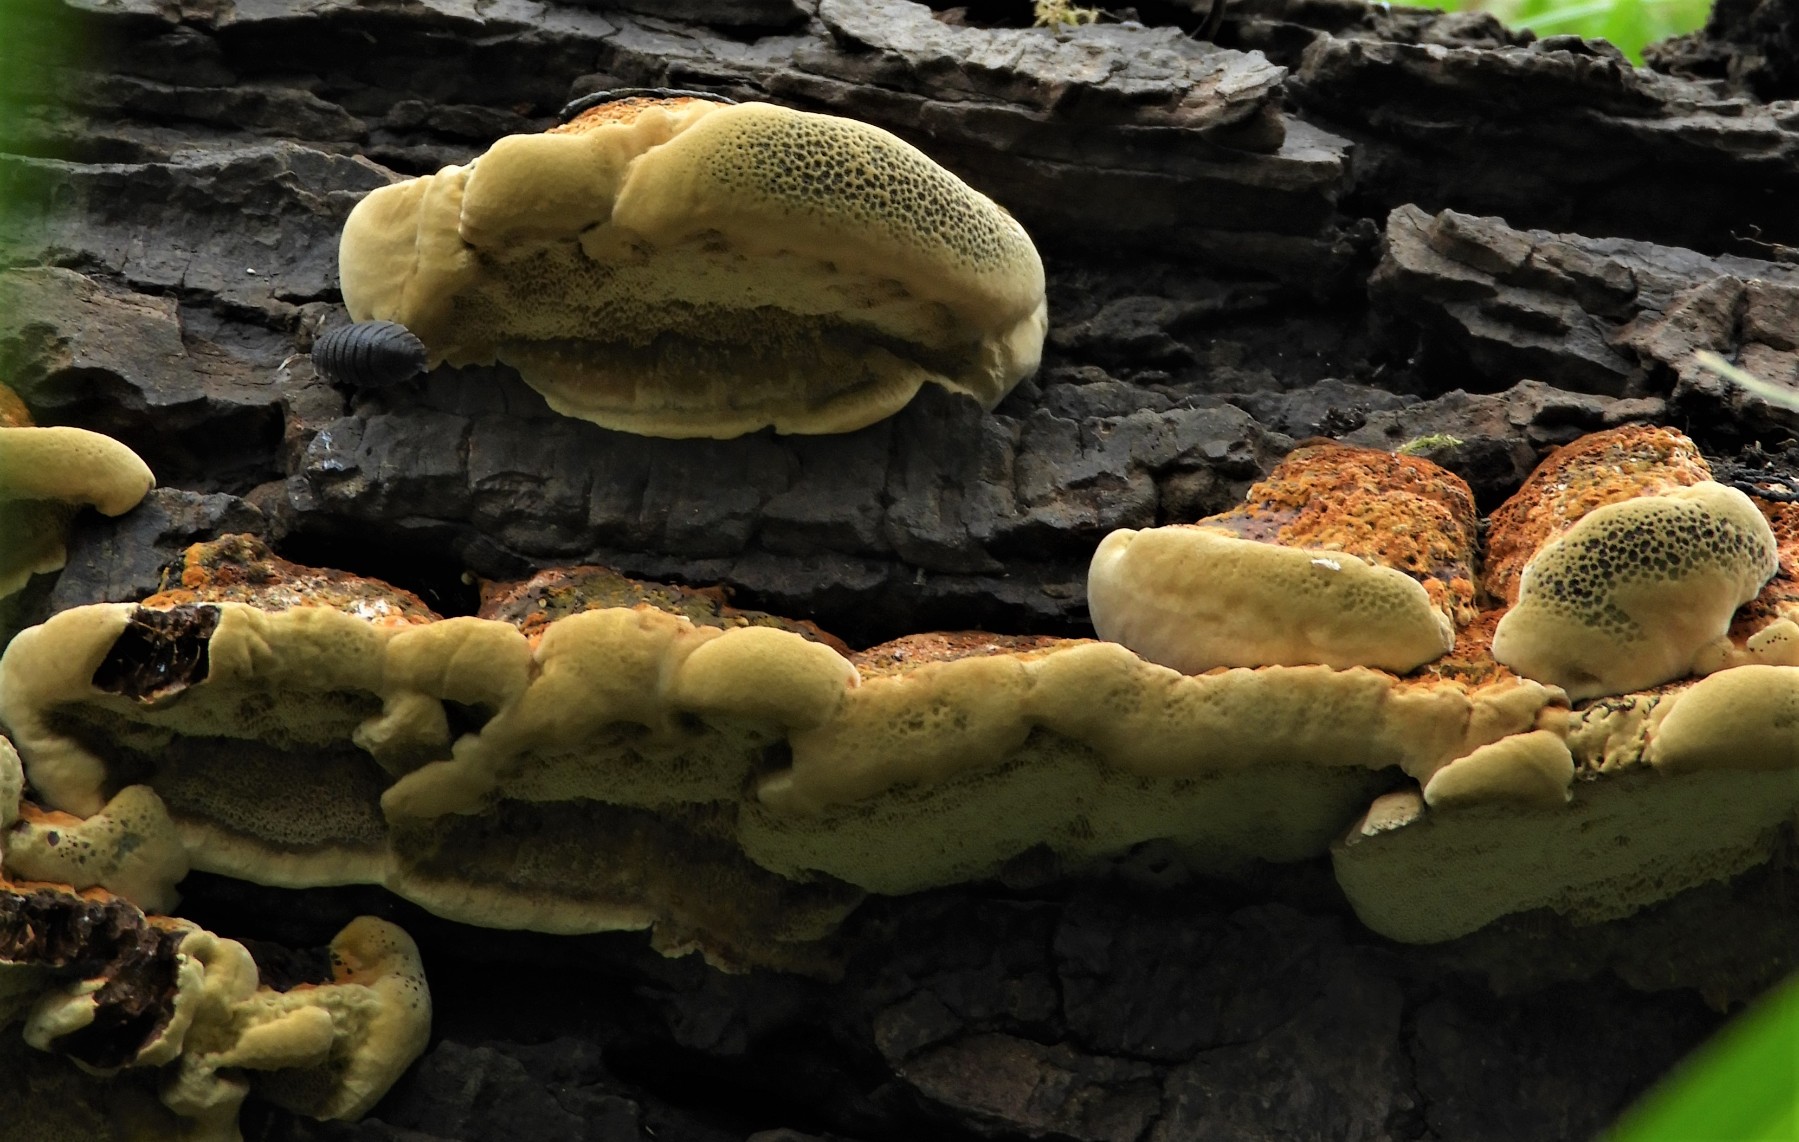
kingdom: Fungi
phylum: Basidiomycota
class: Agaricomycetes
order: Hymenochaetales
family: Hymenochaetaceae
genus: Xanthoporia
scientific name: Xanthoporia radiata
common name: elle-spejlporesvamp
